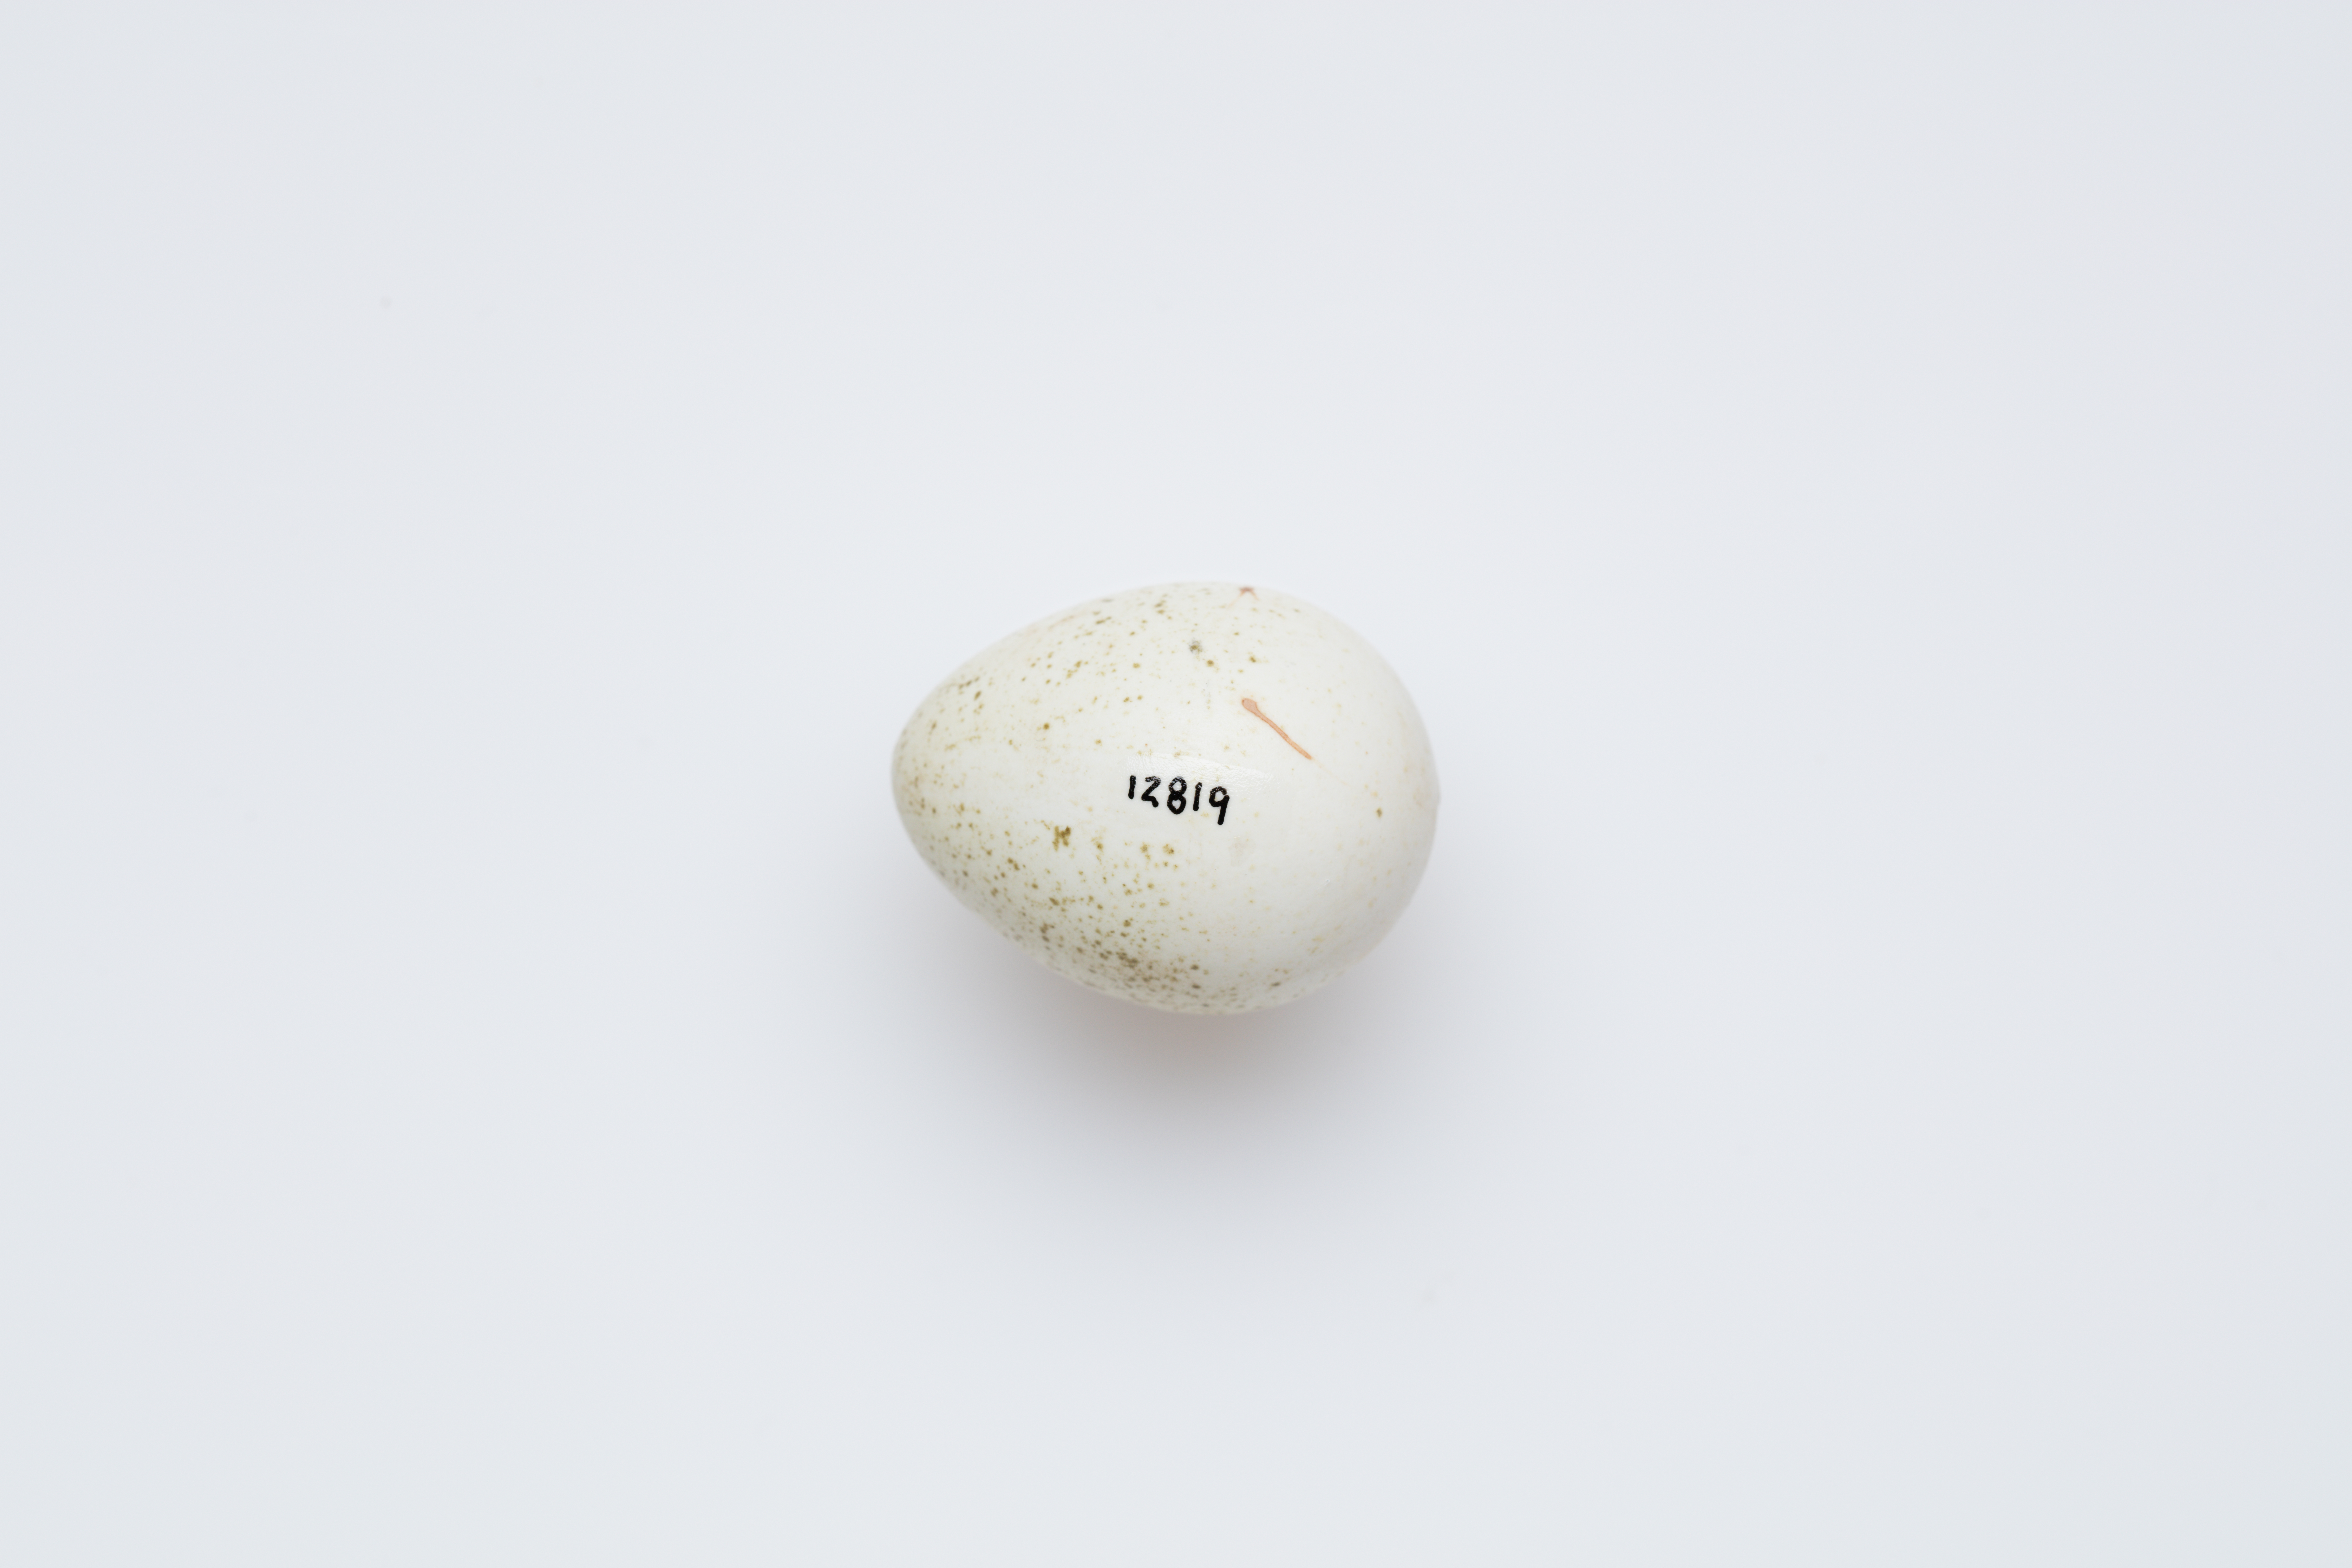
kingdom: Animalia
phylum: Chordata
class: Aves
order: Galliformes
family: Phasianidae
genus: Synoicus
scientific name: Synoicus ypsilophorus
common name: Brown quail
